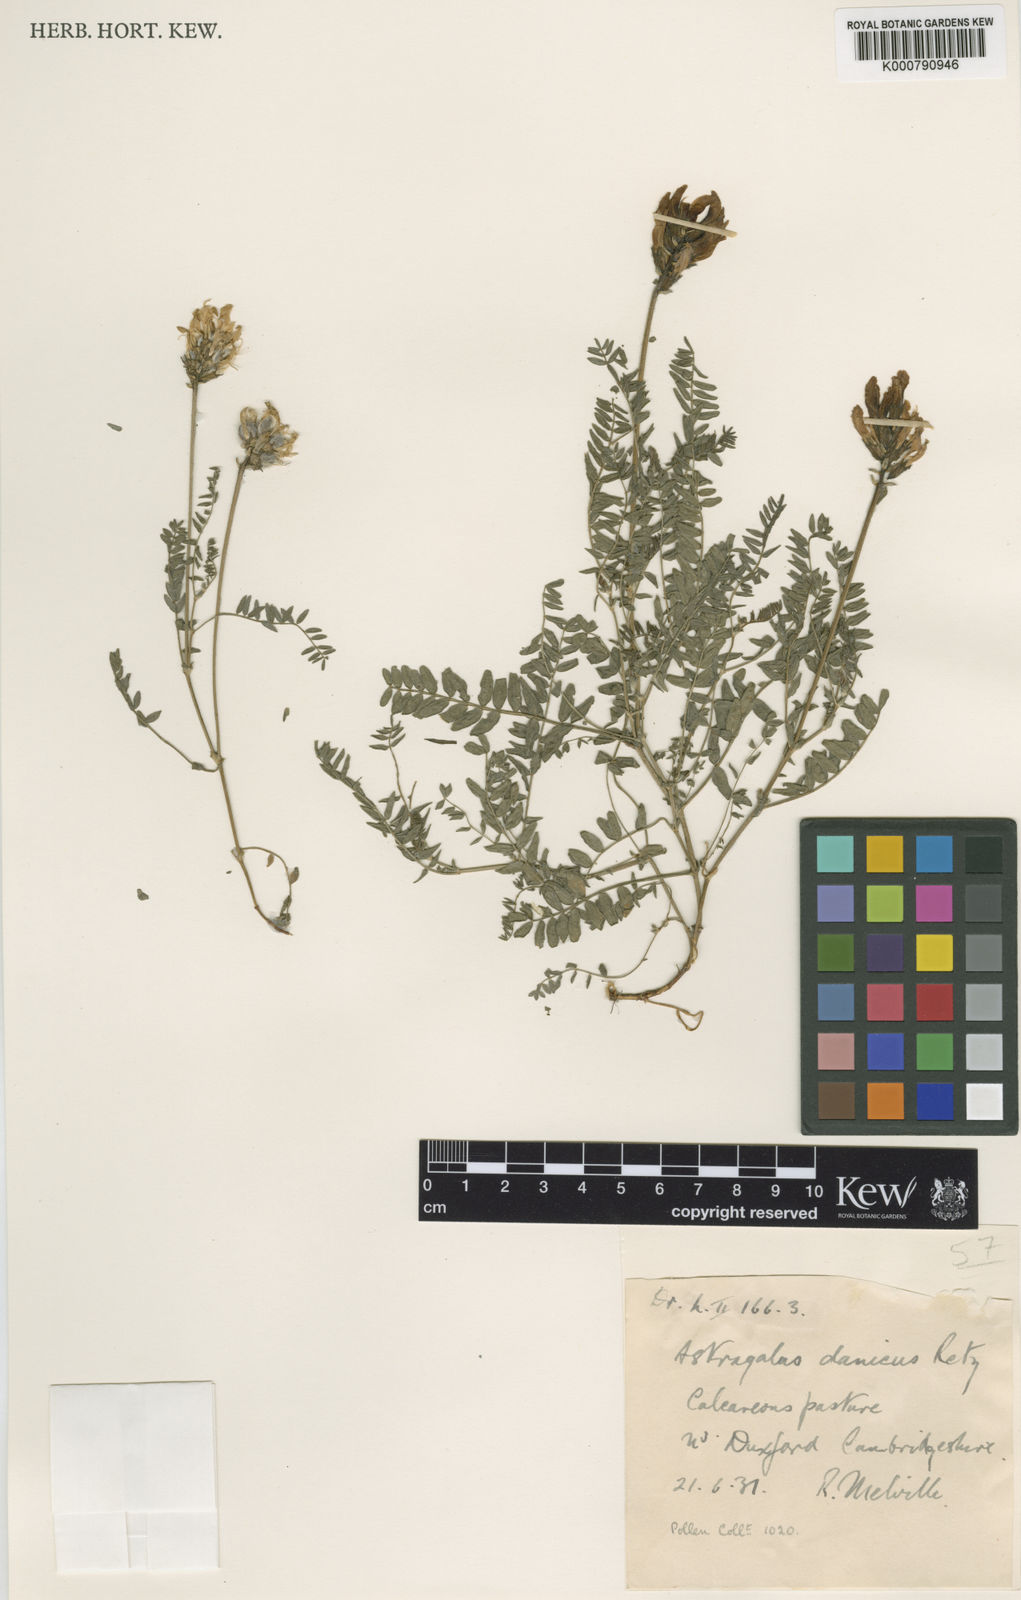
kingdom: Plantae
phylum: Tracheophyta
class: Magnoliopsida
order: Fabales
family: Fabaceae
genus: Astragalus
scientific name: Astragalus danicus
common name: Purple milk-vetch
